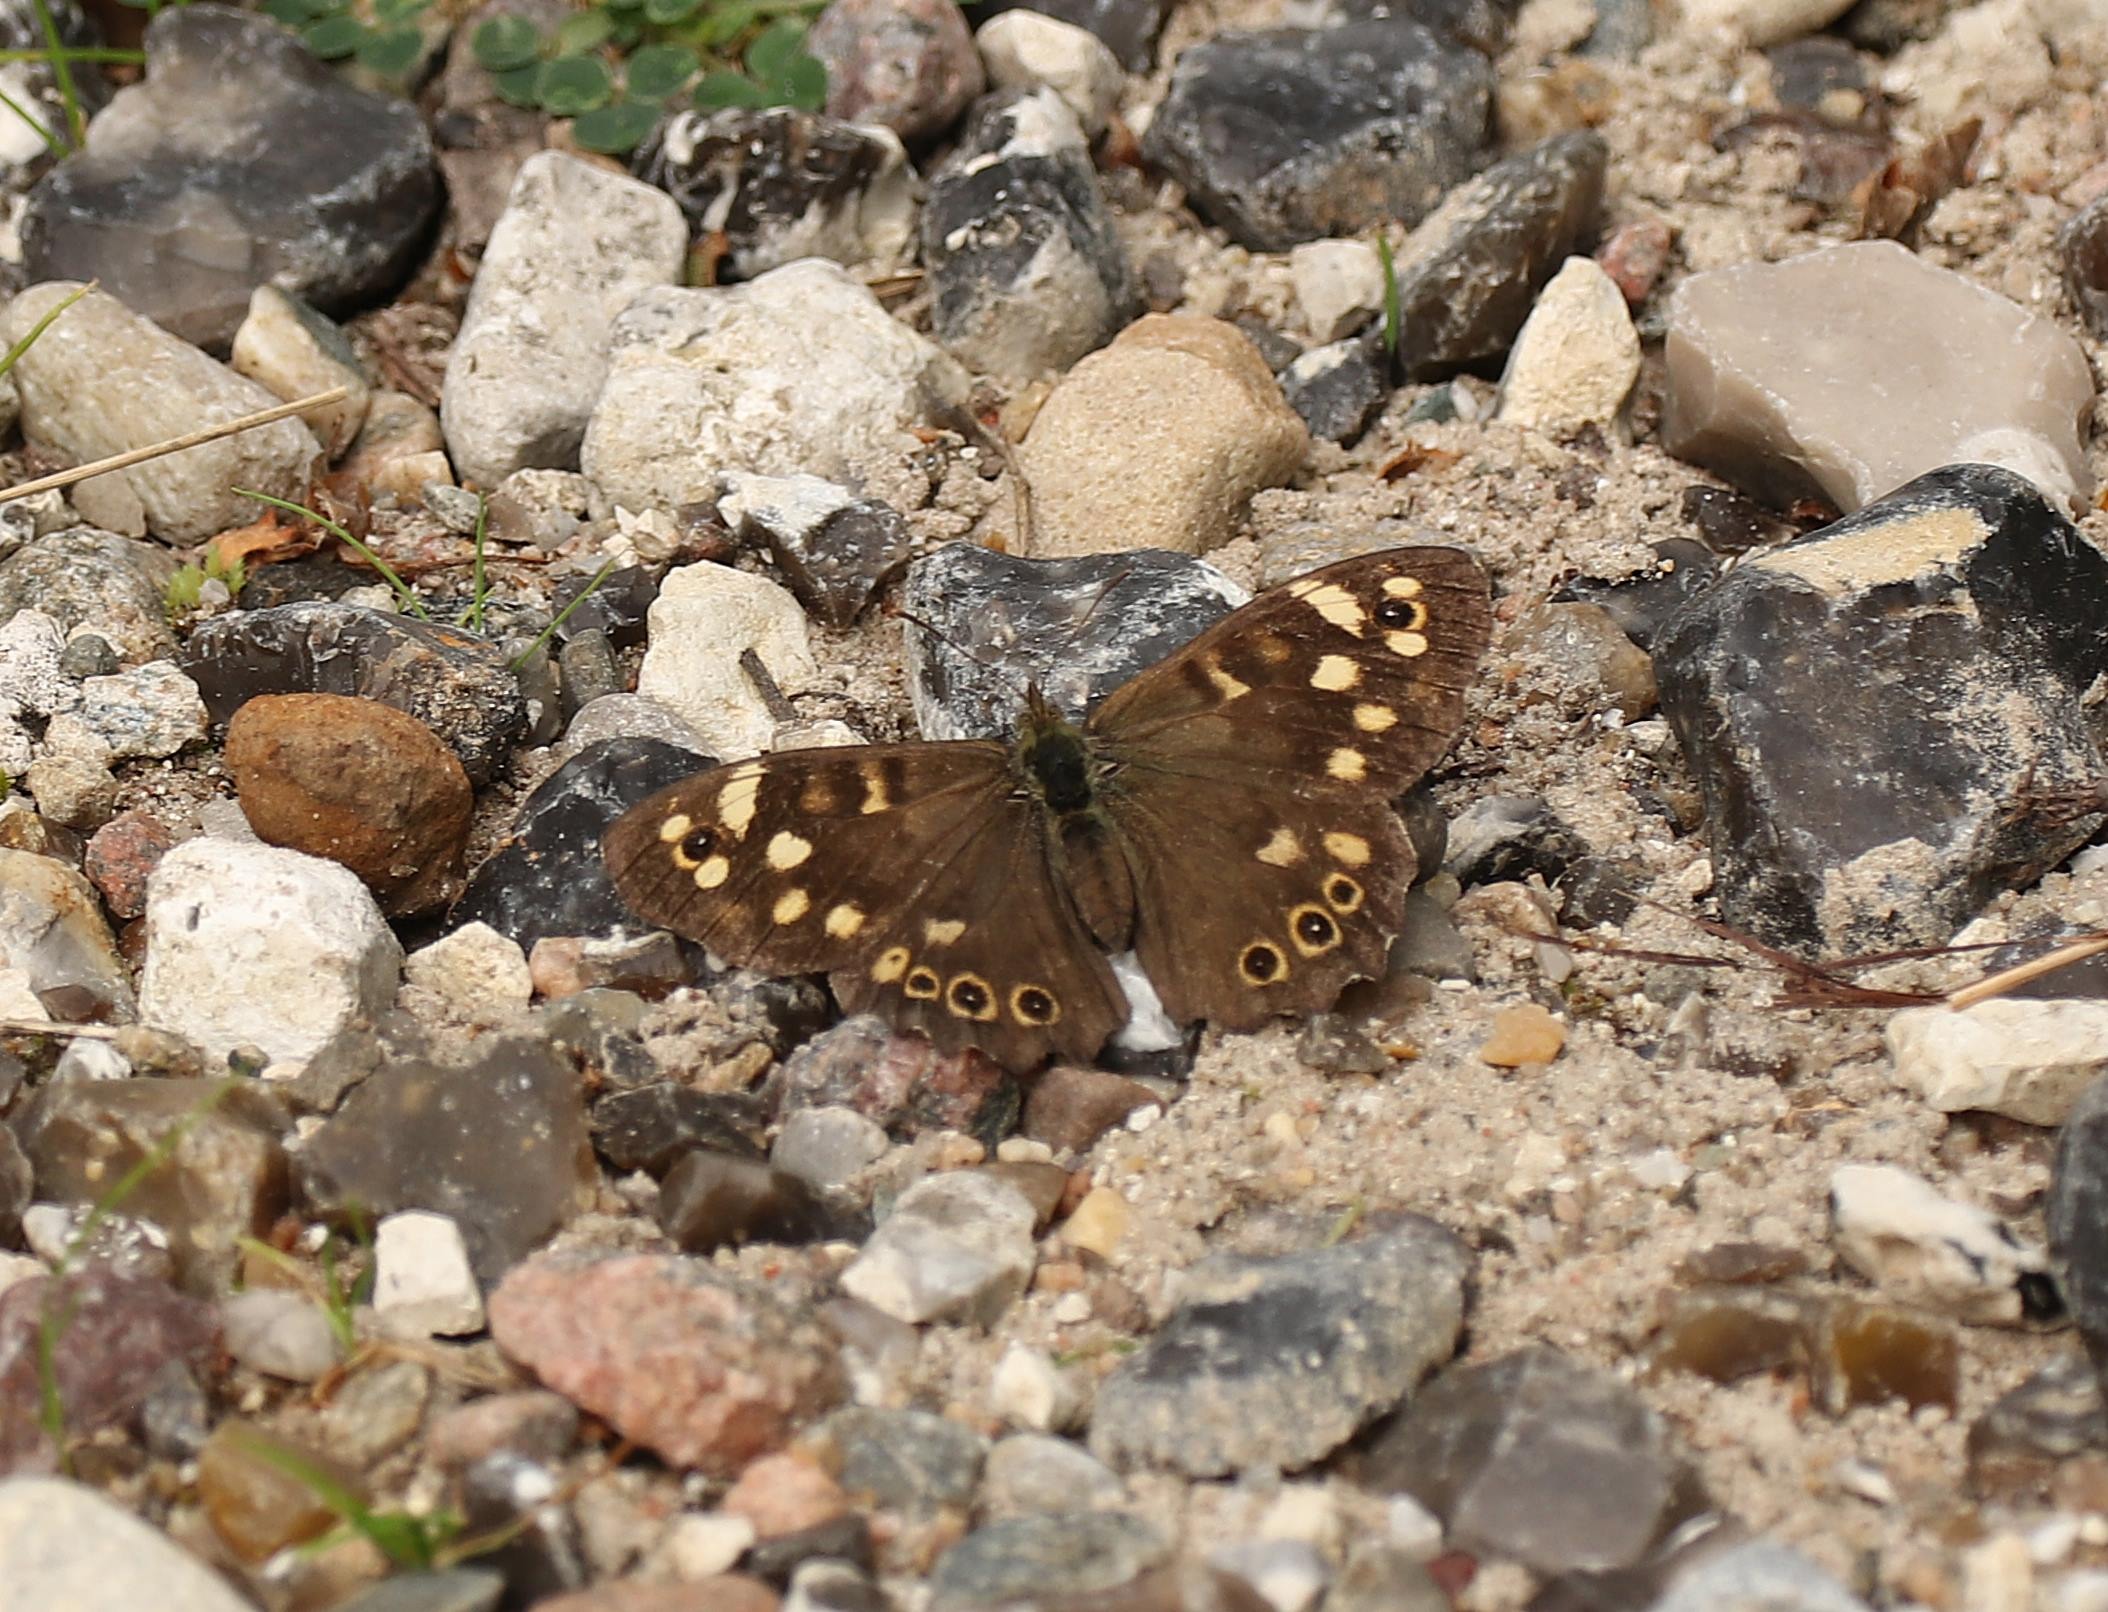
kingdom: Animalia
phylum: Arthropoda
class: Insecta
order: Lepidoptera
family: Nymphalidae
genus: Pararge
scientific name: Pararge aegeria
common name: Skovrandøje
